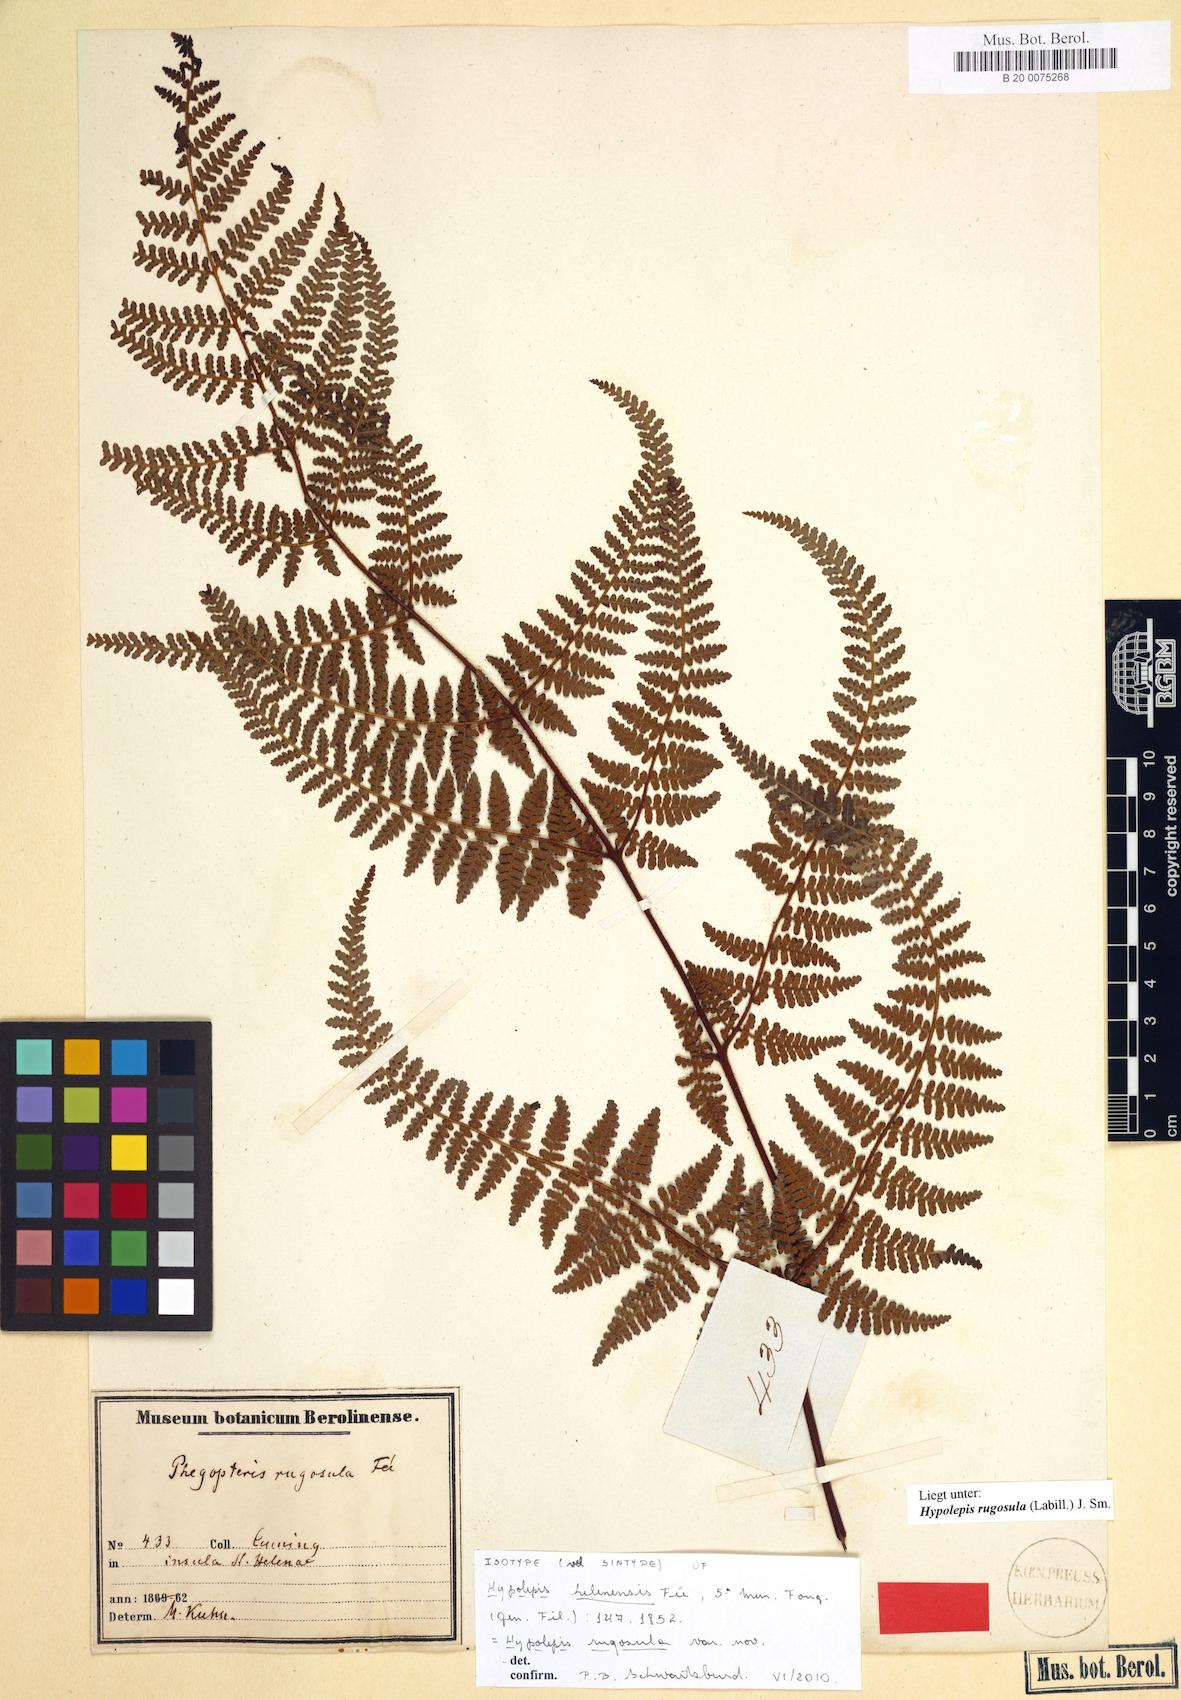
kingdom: Plantae
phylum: Tracheophyta
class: Polypodiopsida
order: Polypodiales
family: Dennstaedtiaceae
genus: Hypolepis
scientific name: Hypolepis rugosula
